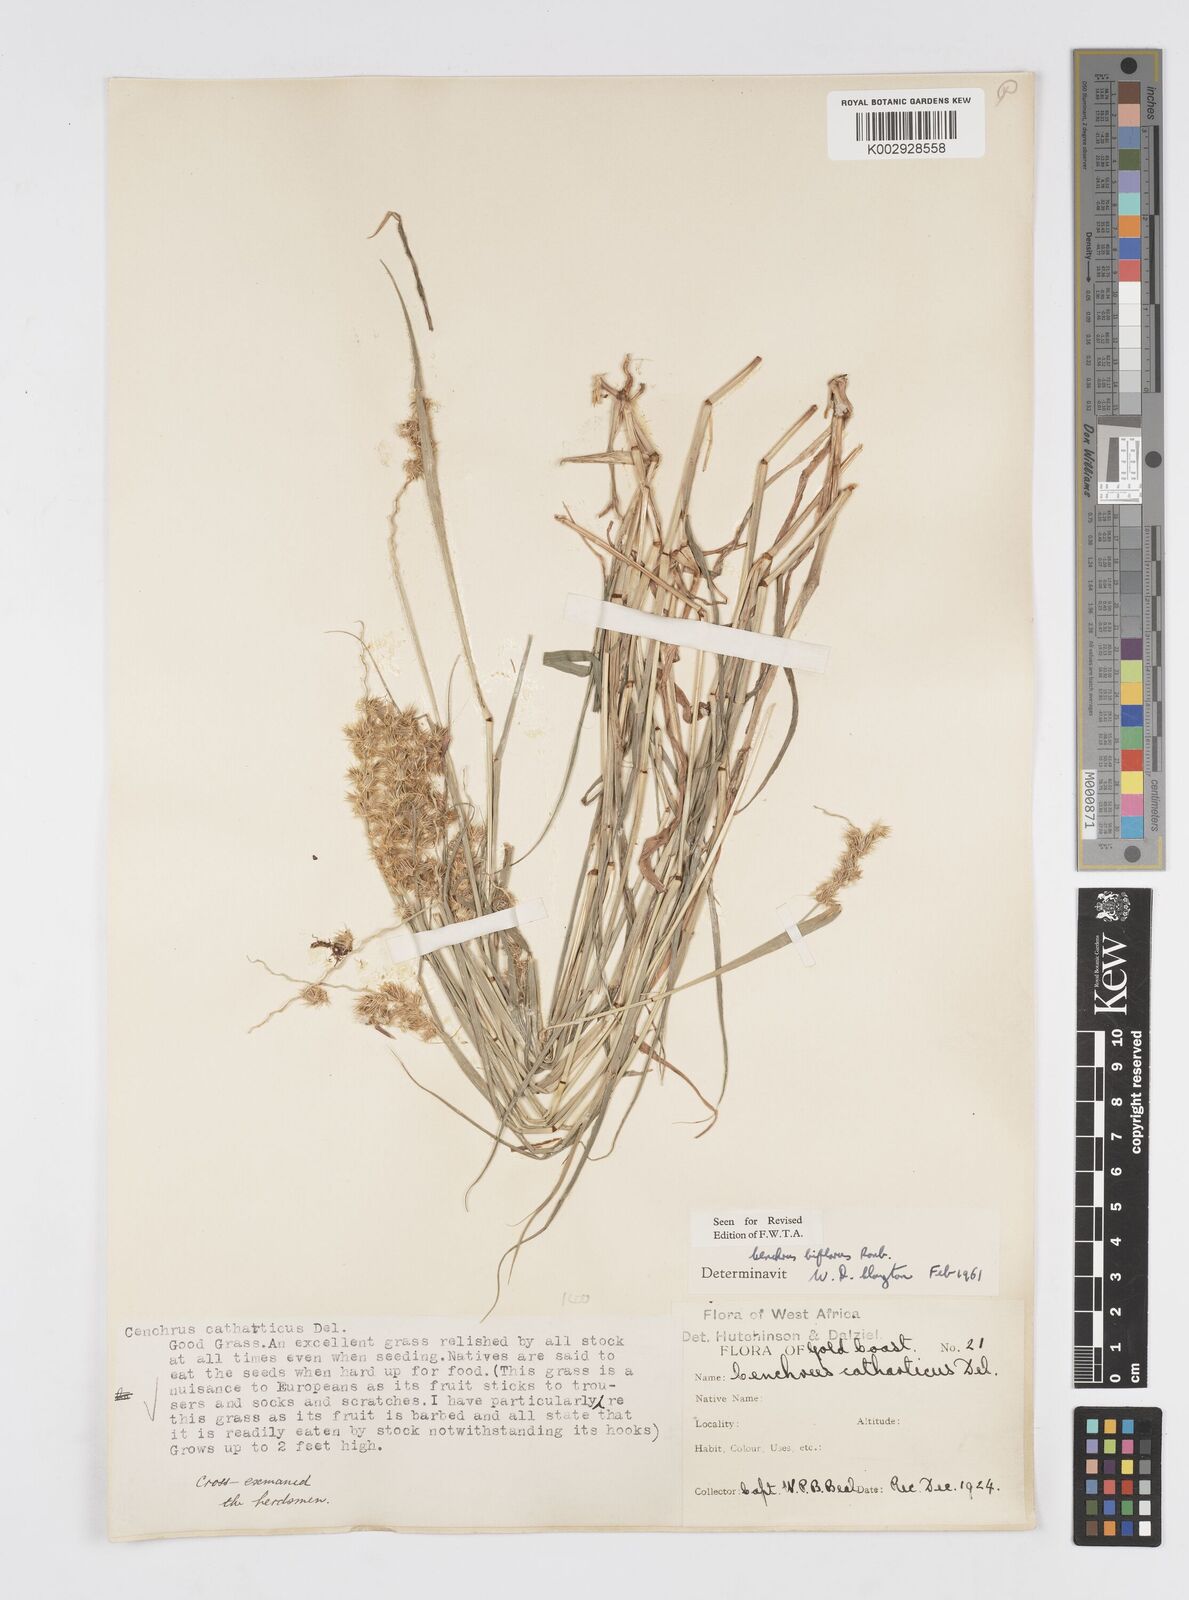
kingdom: Plantae
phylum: Tracheophyta
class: Liliopsida
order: Poales
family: Poaceae
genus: Cenchrus
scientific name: Cenchrus biflorus
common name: Indian sandbur
